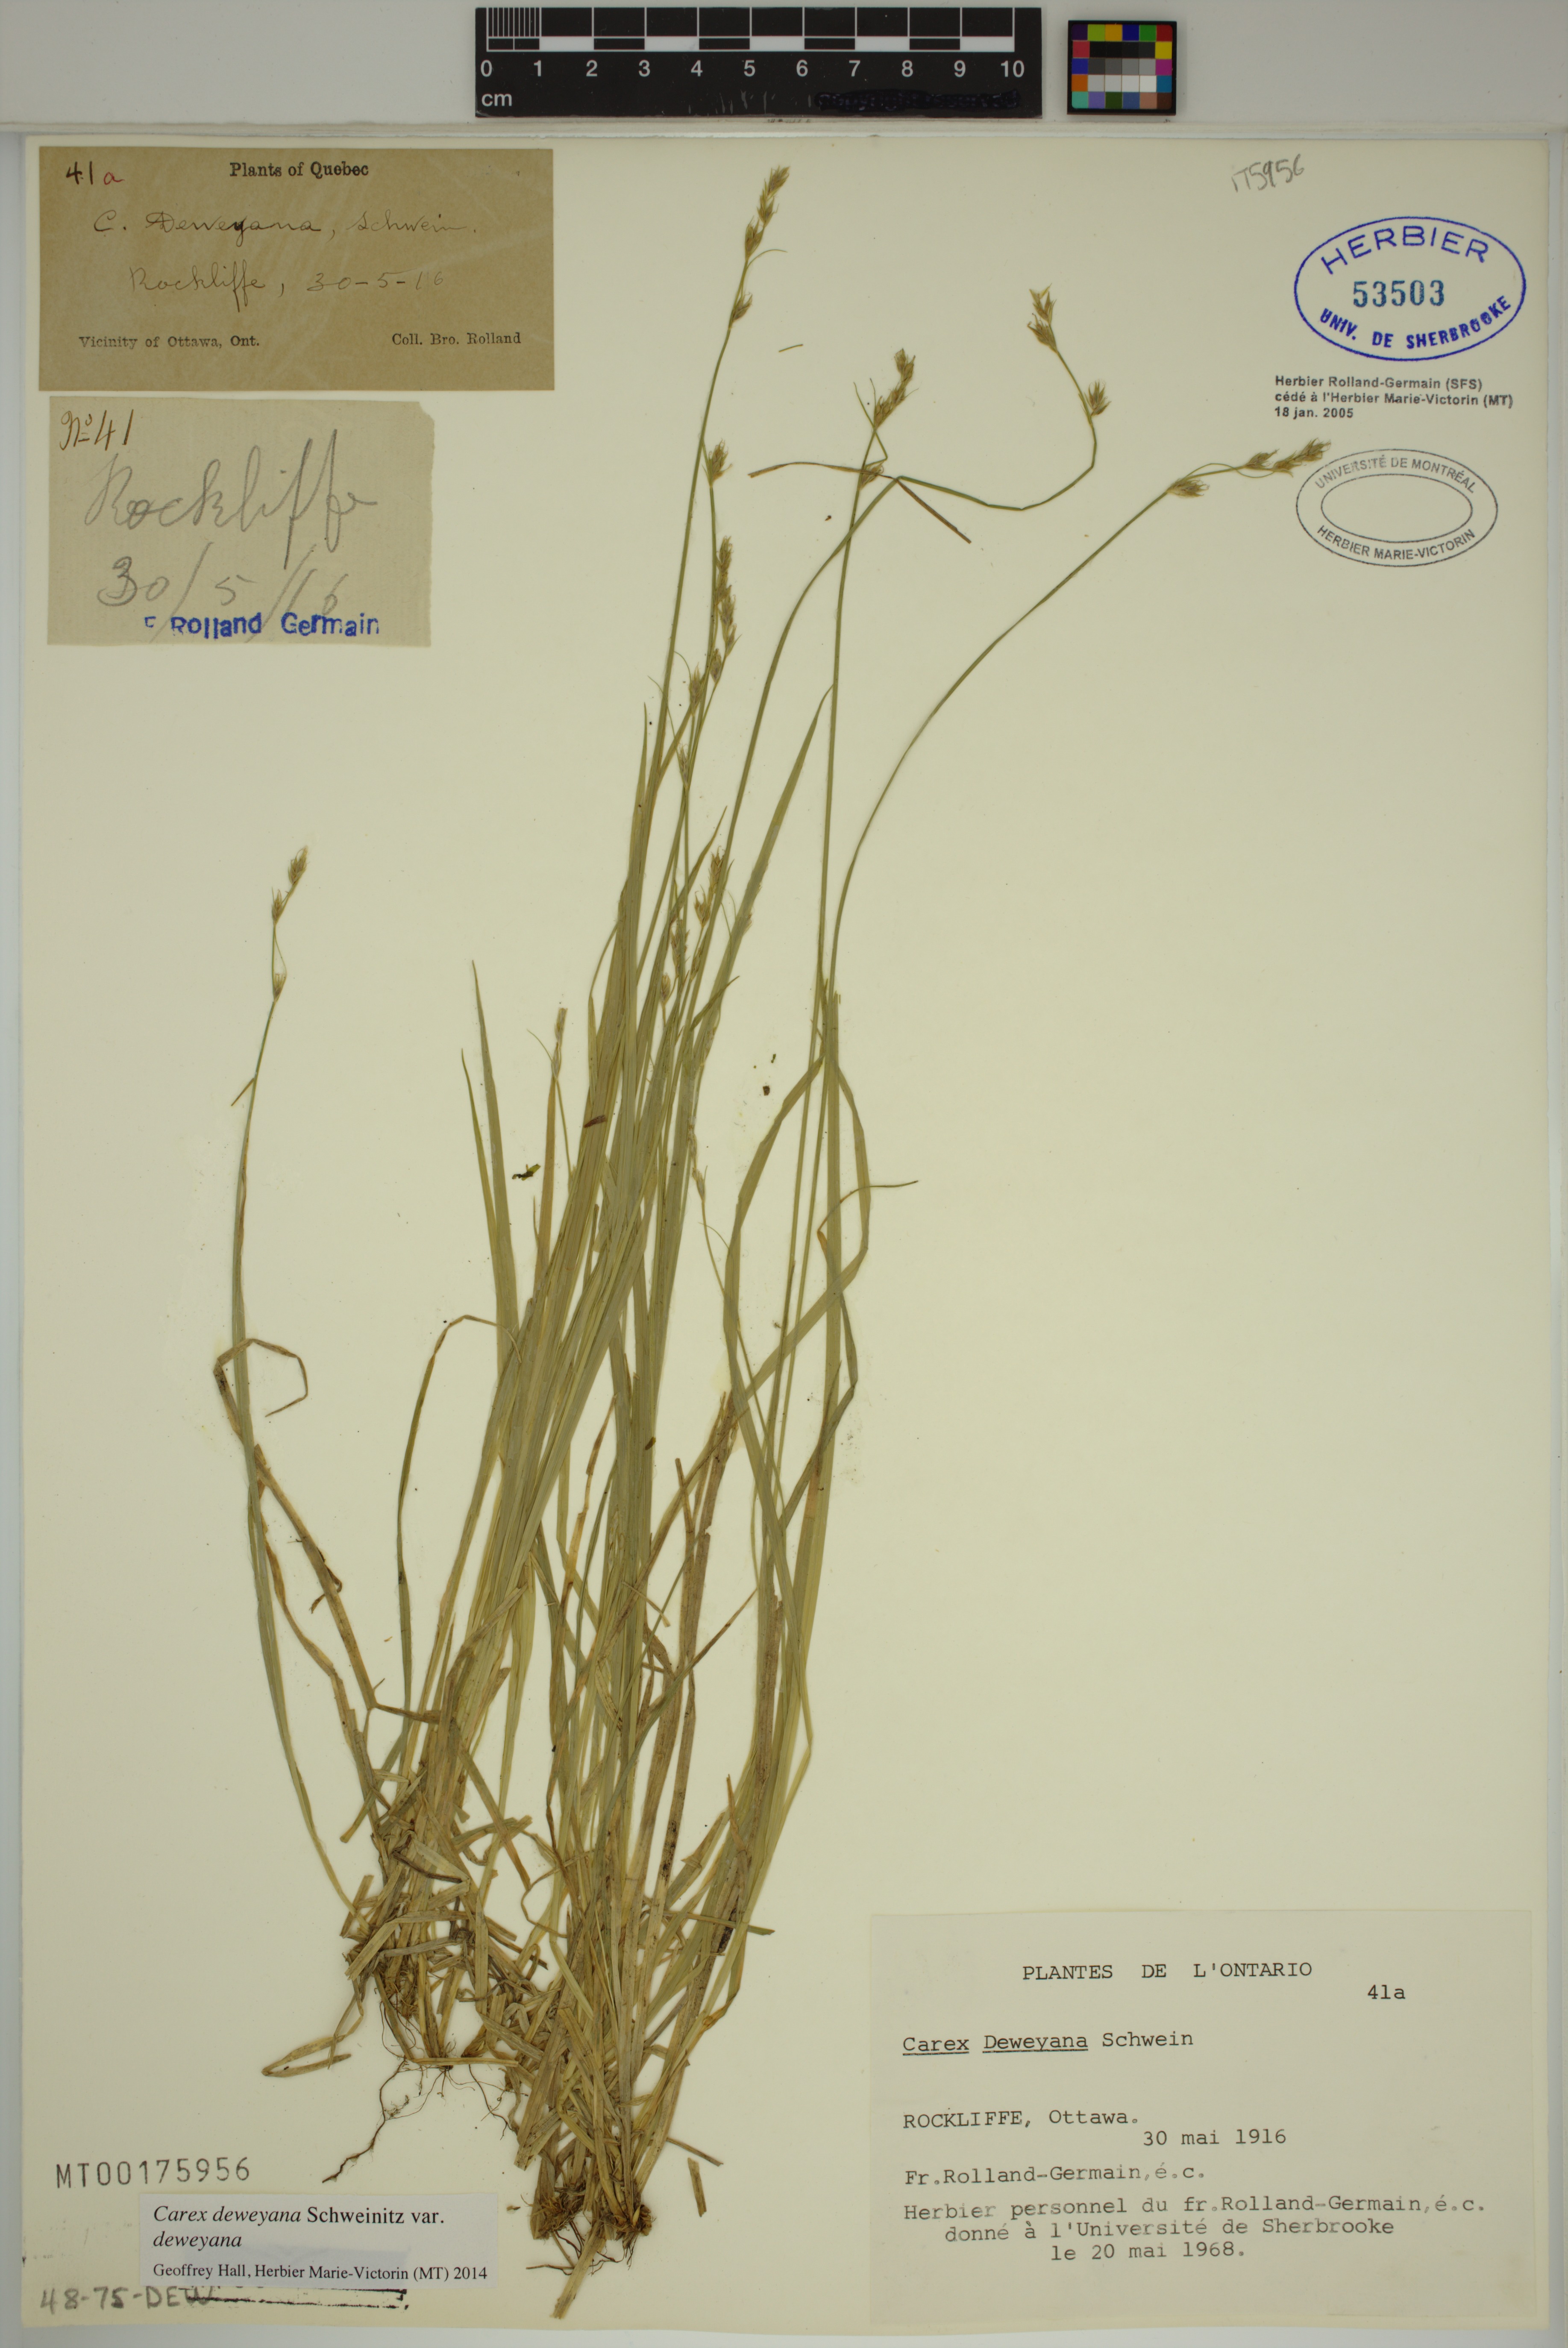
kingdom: Plantae
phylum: Tracheophyta
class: Liliopsida
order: Poales
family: Cyperaceae
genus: Carex
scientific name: Carex deweyana
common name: Dewey's sedge
